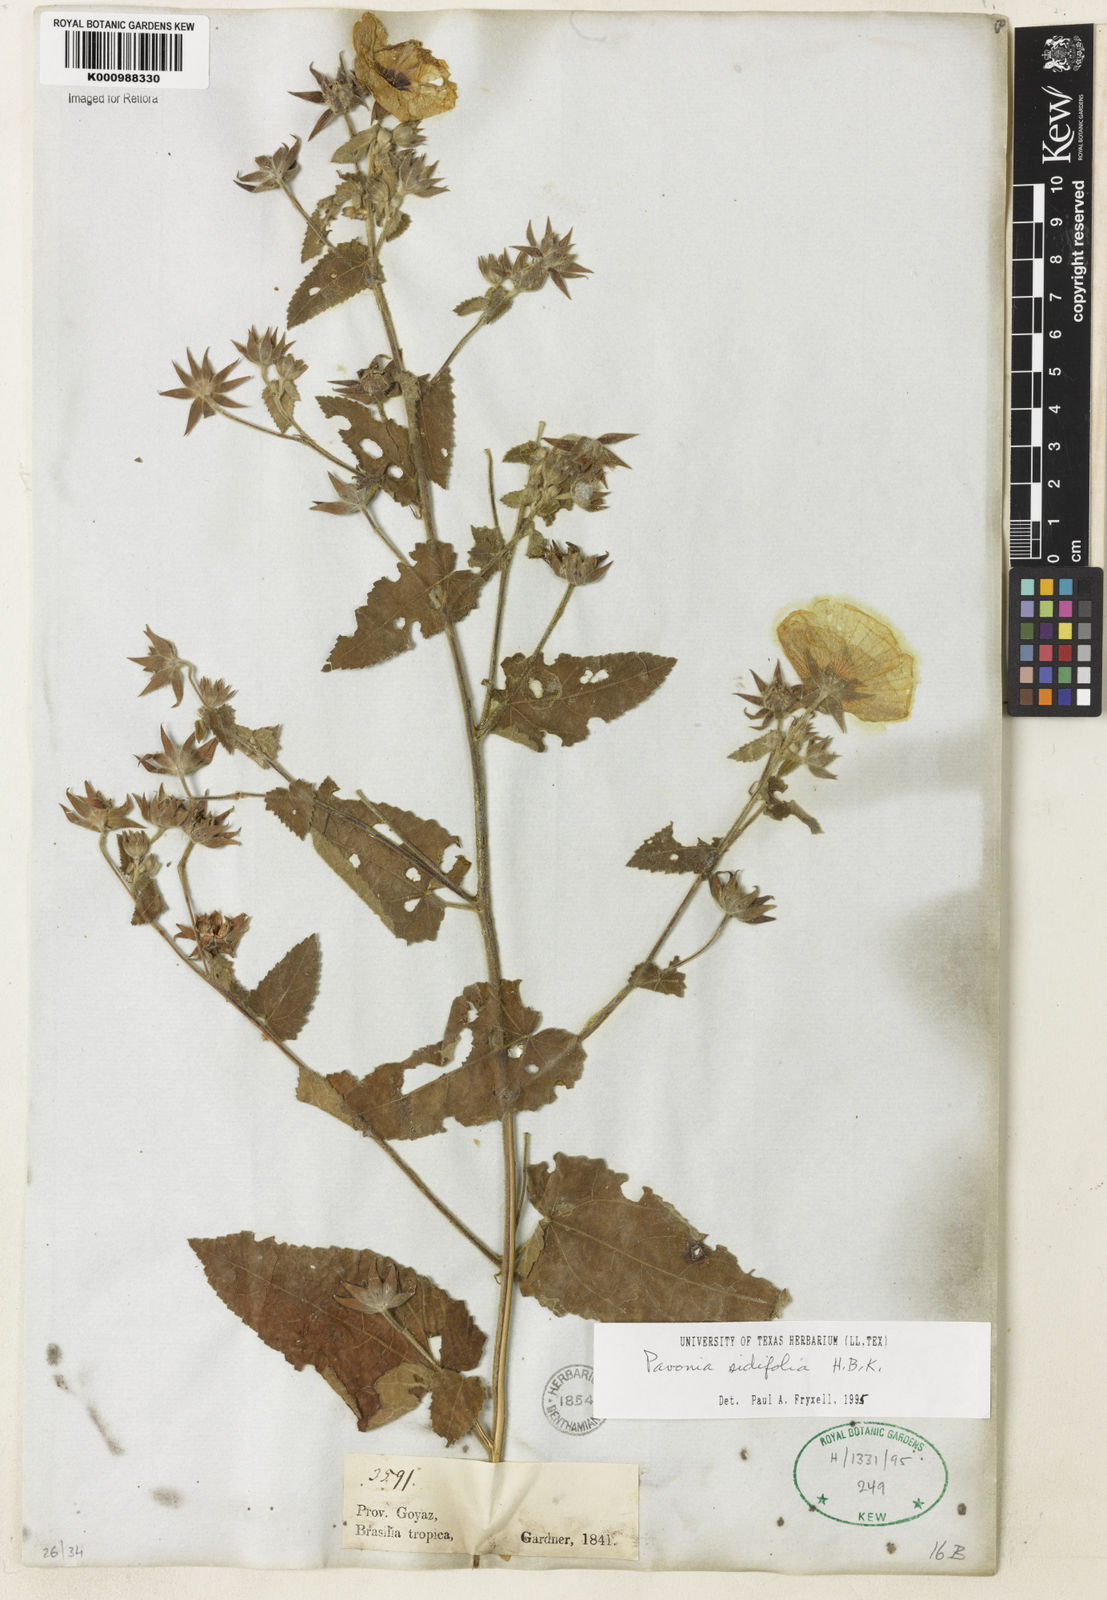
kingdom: Plantae
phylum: Tracheophyta
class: Magnoliopsida
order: Malvales
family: Malvaceae
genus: Pavonia
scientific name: Pavonia sidifolia
